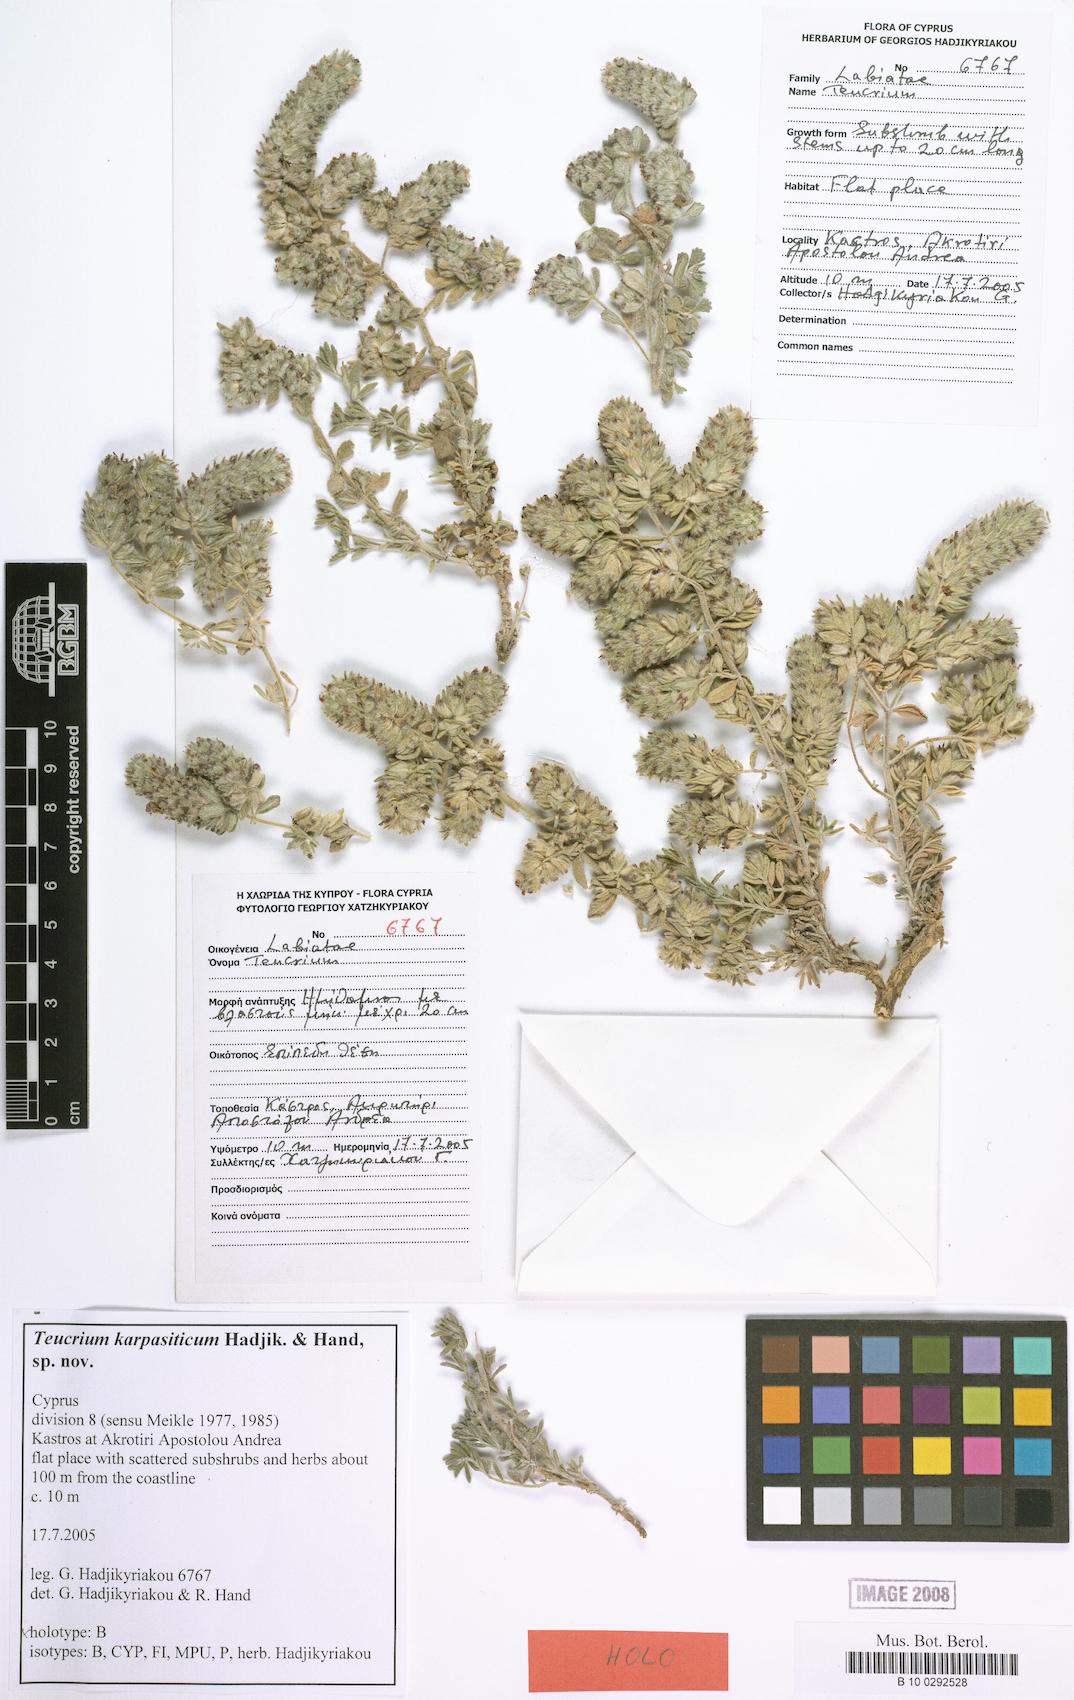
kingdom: Plantae
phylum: Tracheophyta
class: Magnoliopsida
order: Lamiales
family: Lamiaceae
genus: Teucrium
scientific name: Teucrium karpasiticum
